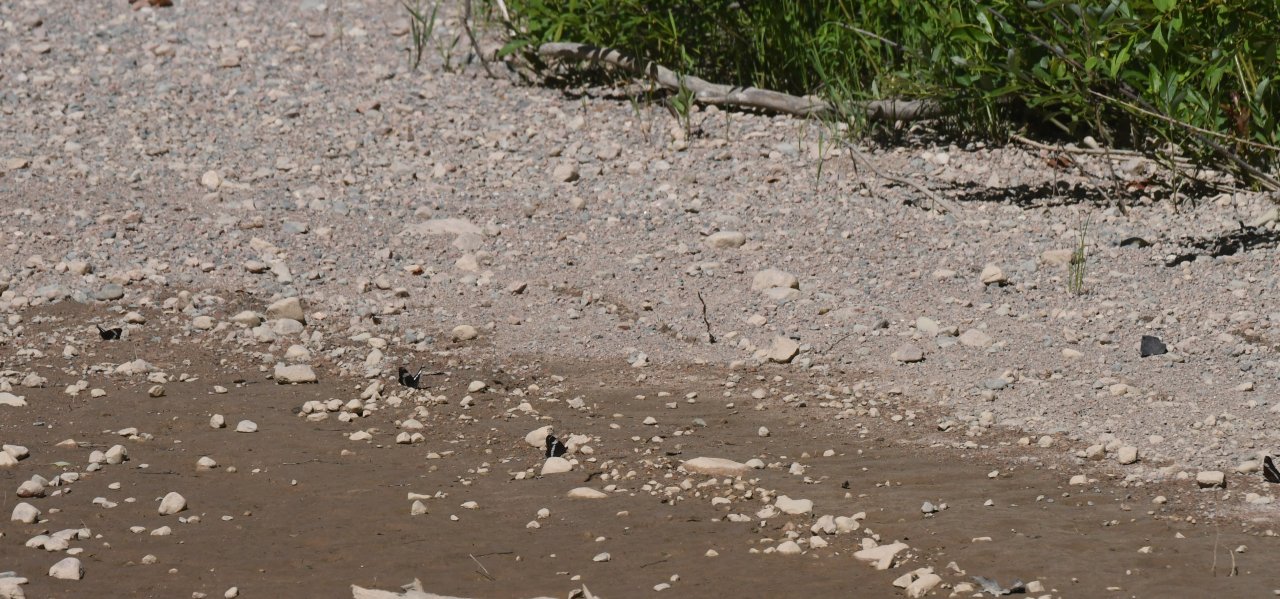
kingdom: Animalia
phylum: Arthropoda
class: Insecta
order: Lepidoptera
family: Nymphalidae
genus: Limenitis
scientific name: Limenitis arthemis
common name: Red-spotted Admiral
